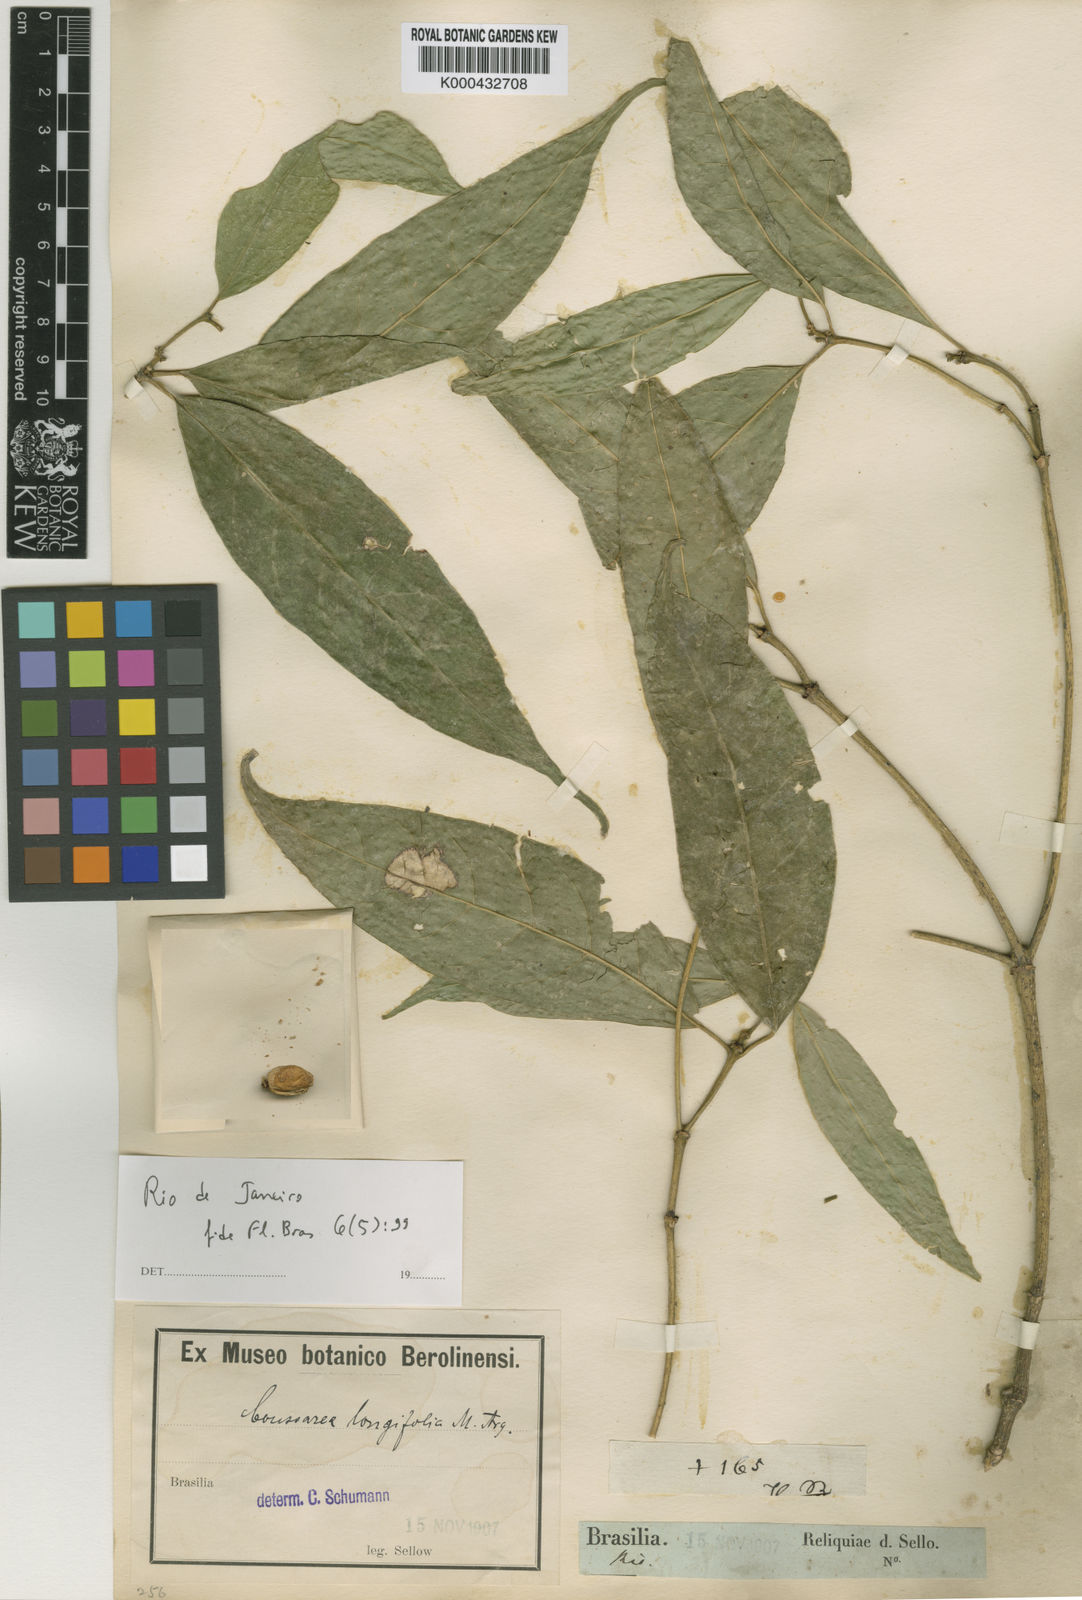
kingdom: Plantae
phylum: Tracheophyta
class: Magnoliopsida
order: Gentianales
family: Rubiaceae
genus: Coussarea
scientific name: Coussarea
